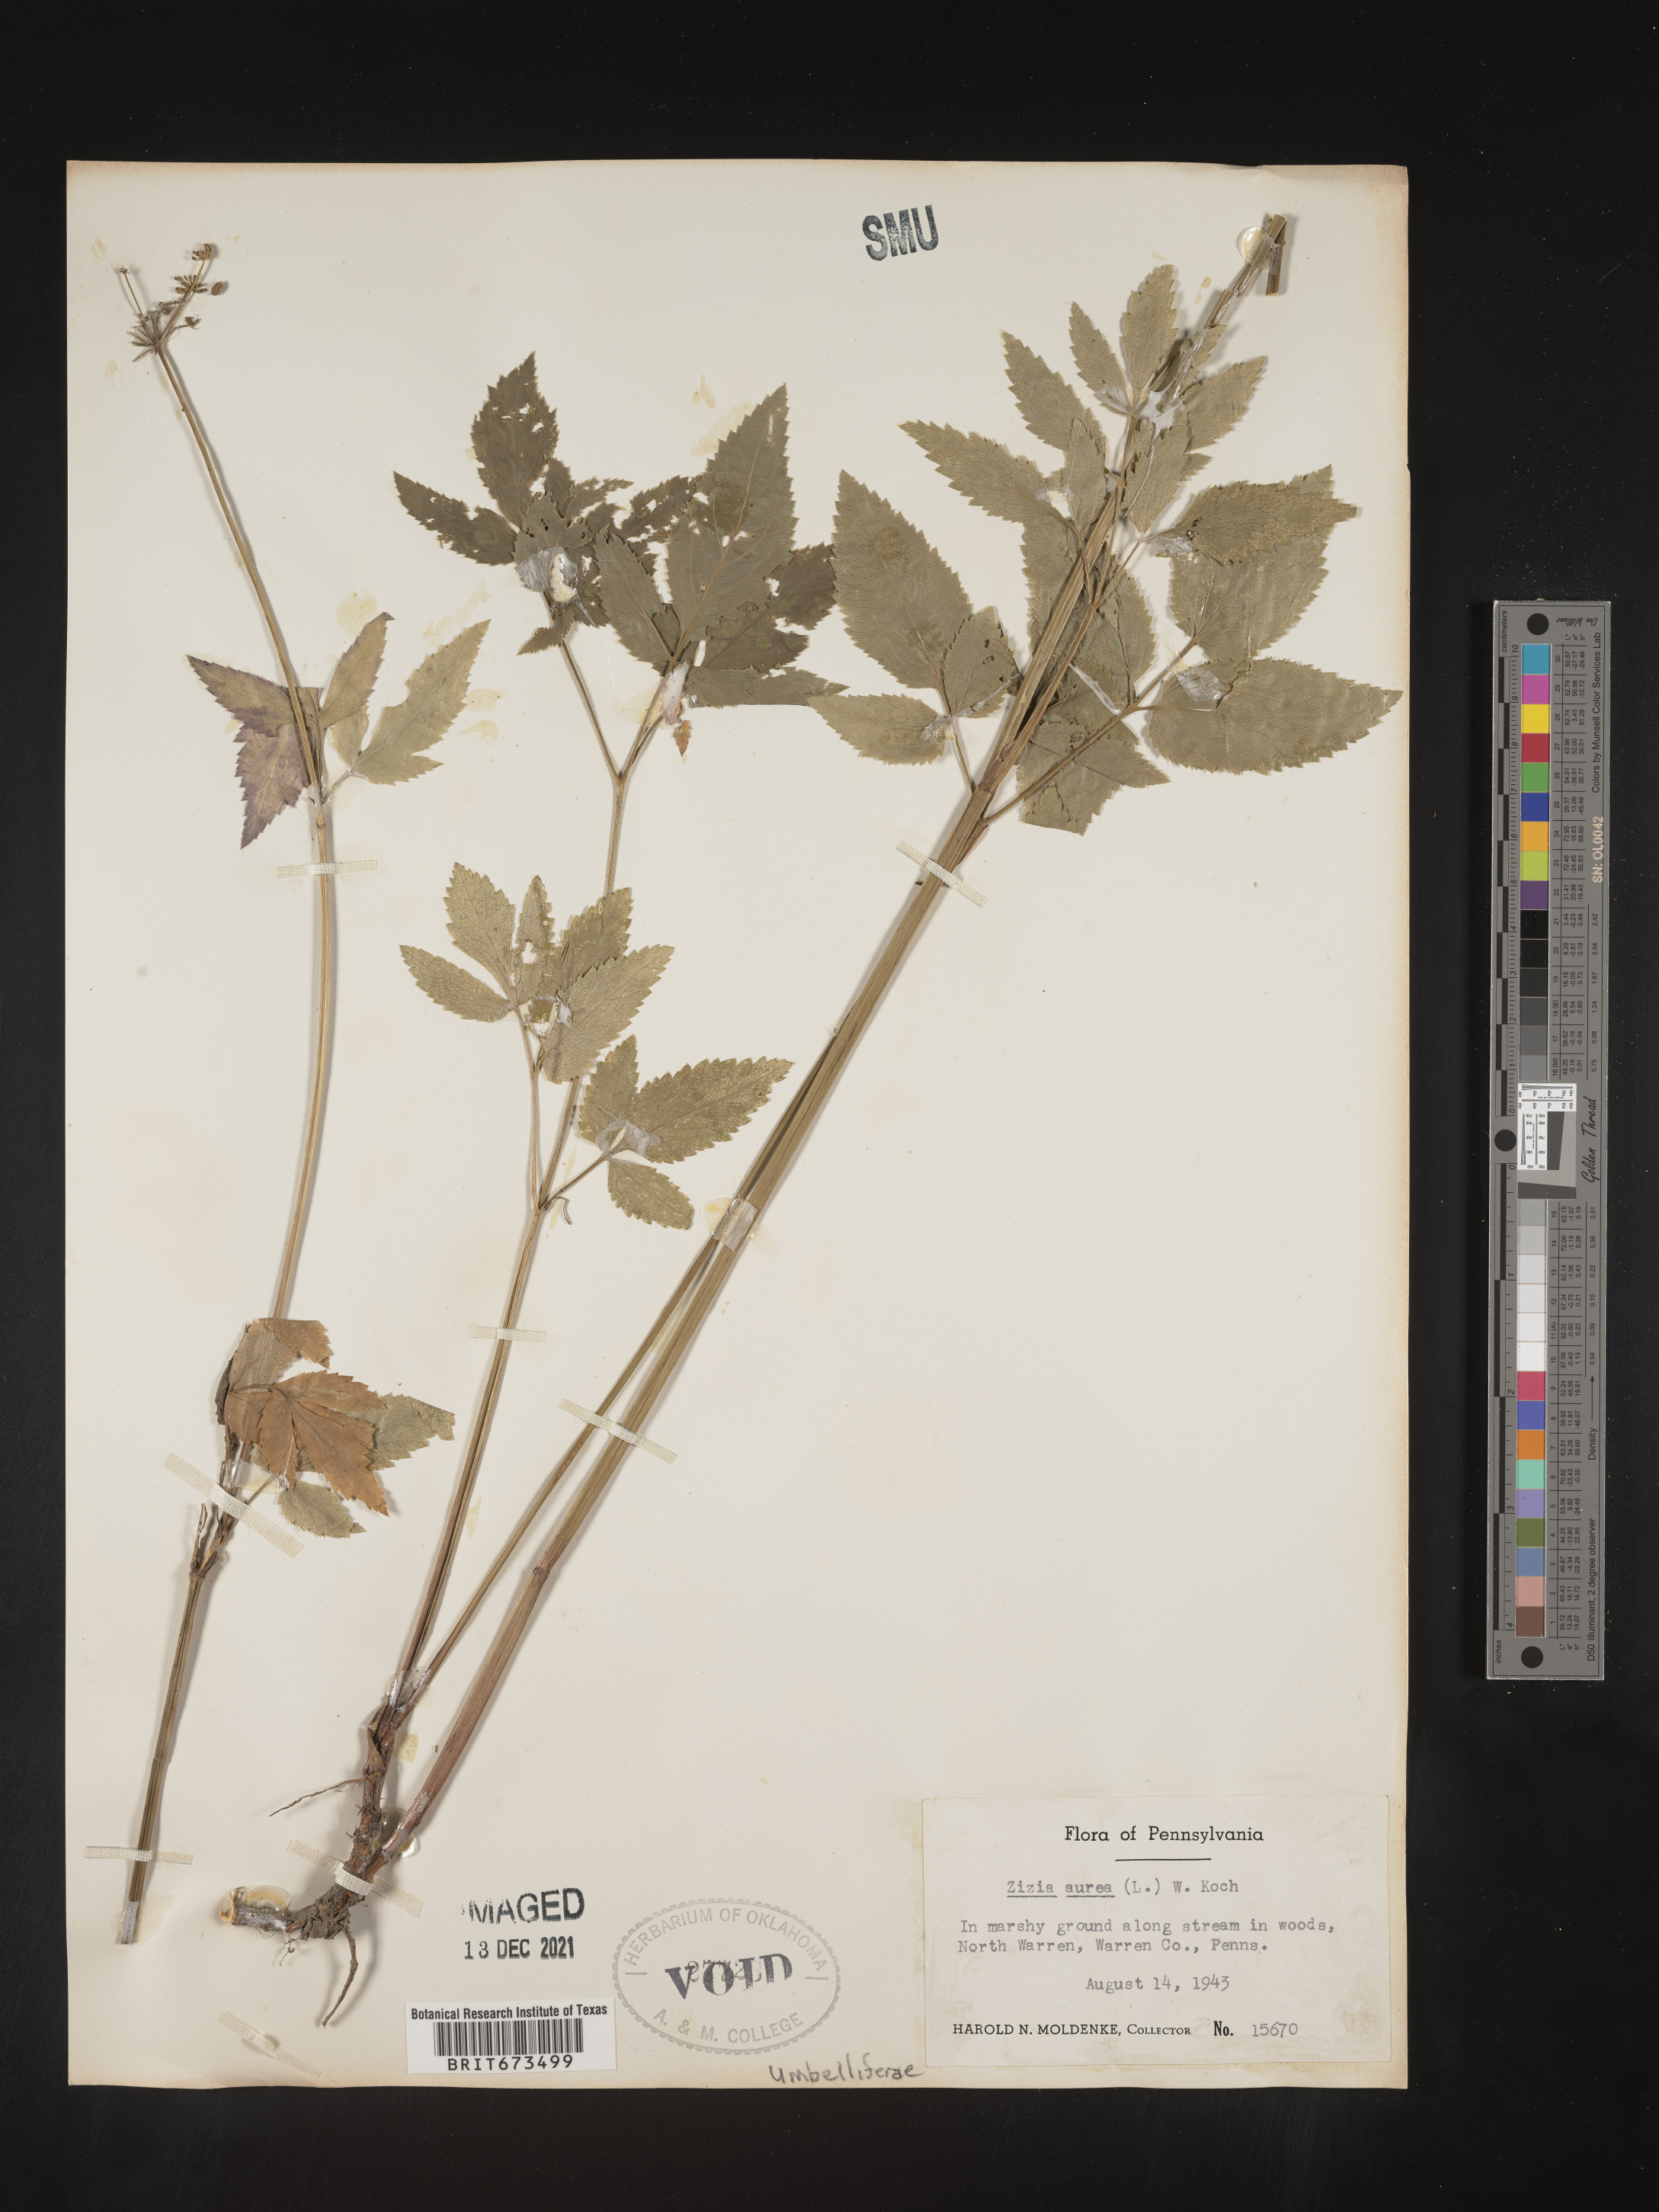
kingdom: Plantae
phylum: Tracheophyta
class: Magnoliopsida
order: Apiales
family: Apiaceae
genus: Zizia
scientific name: Zizia aurea
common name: Golden alexanders
